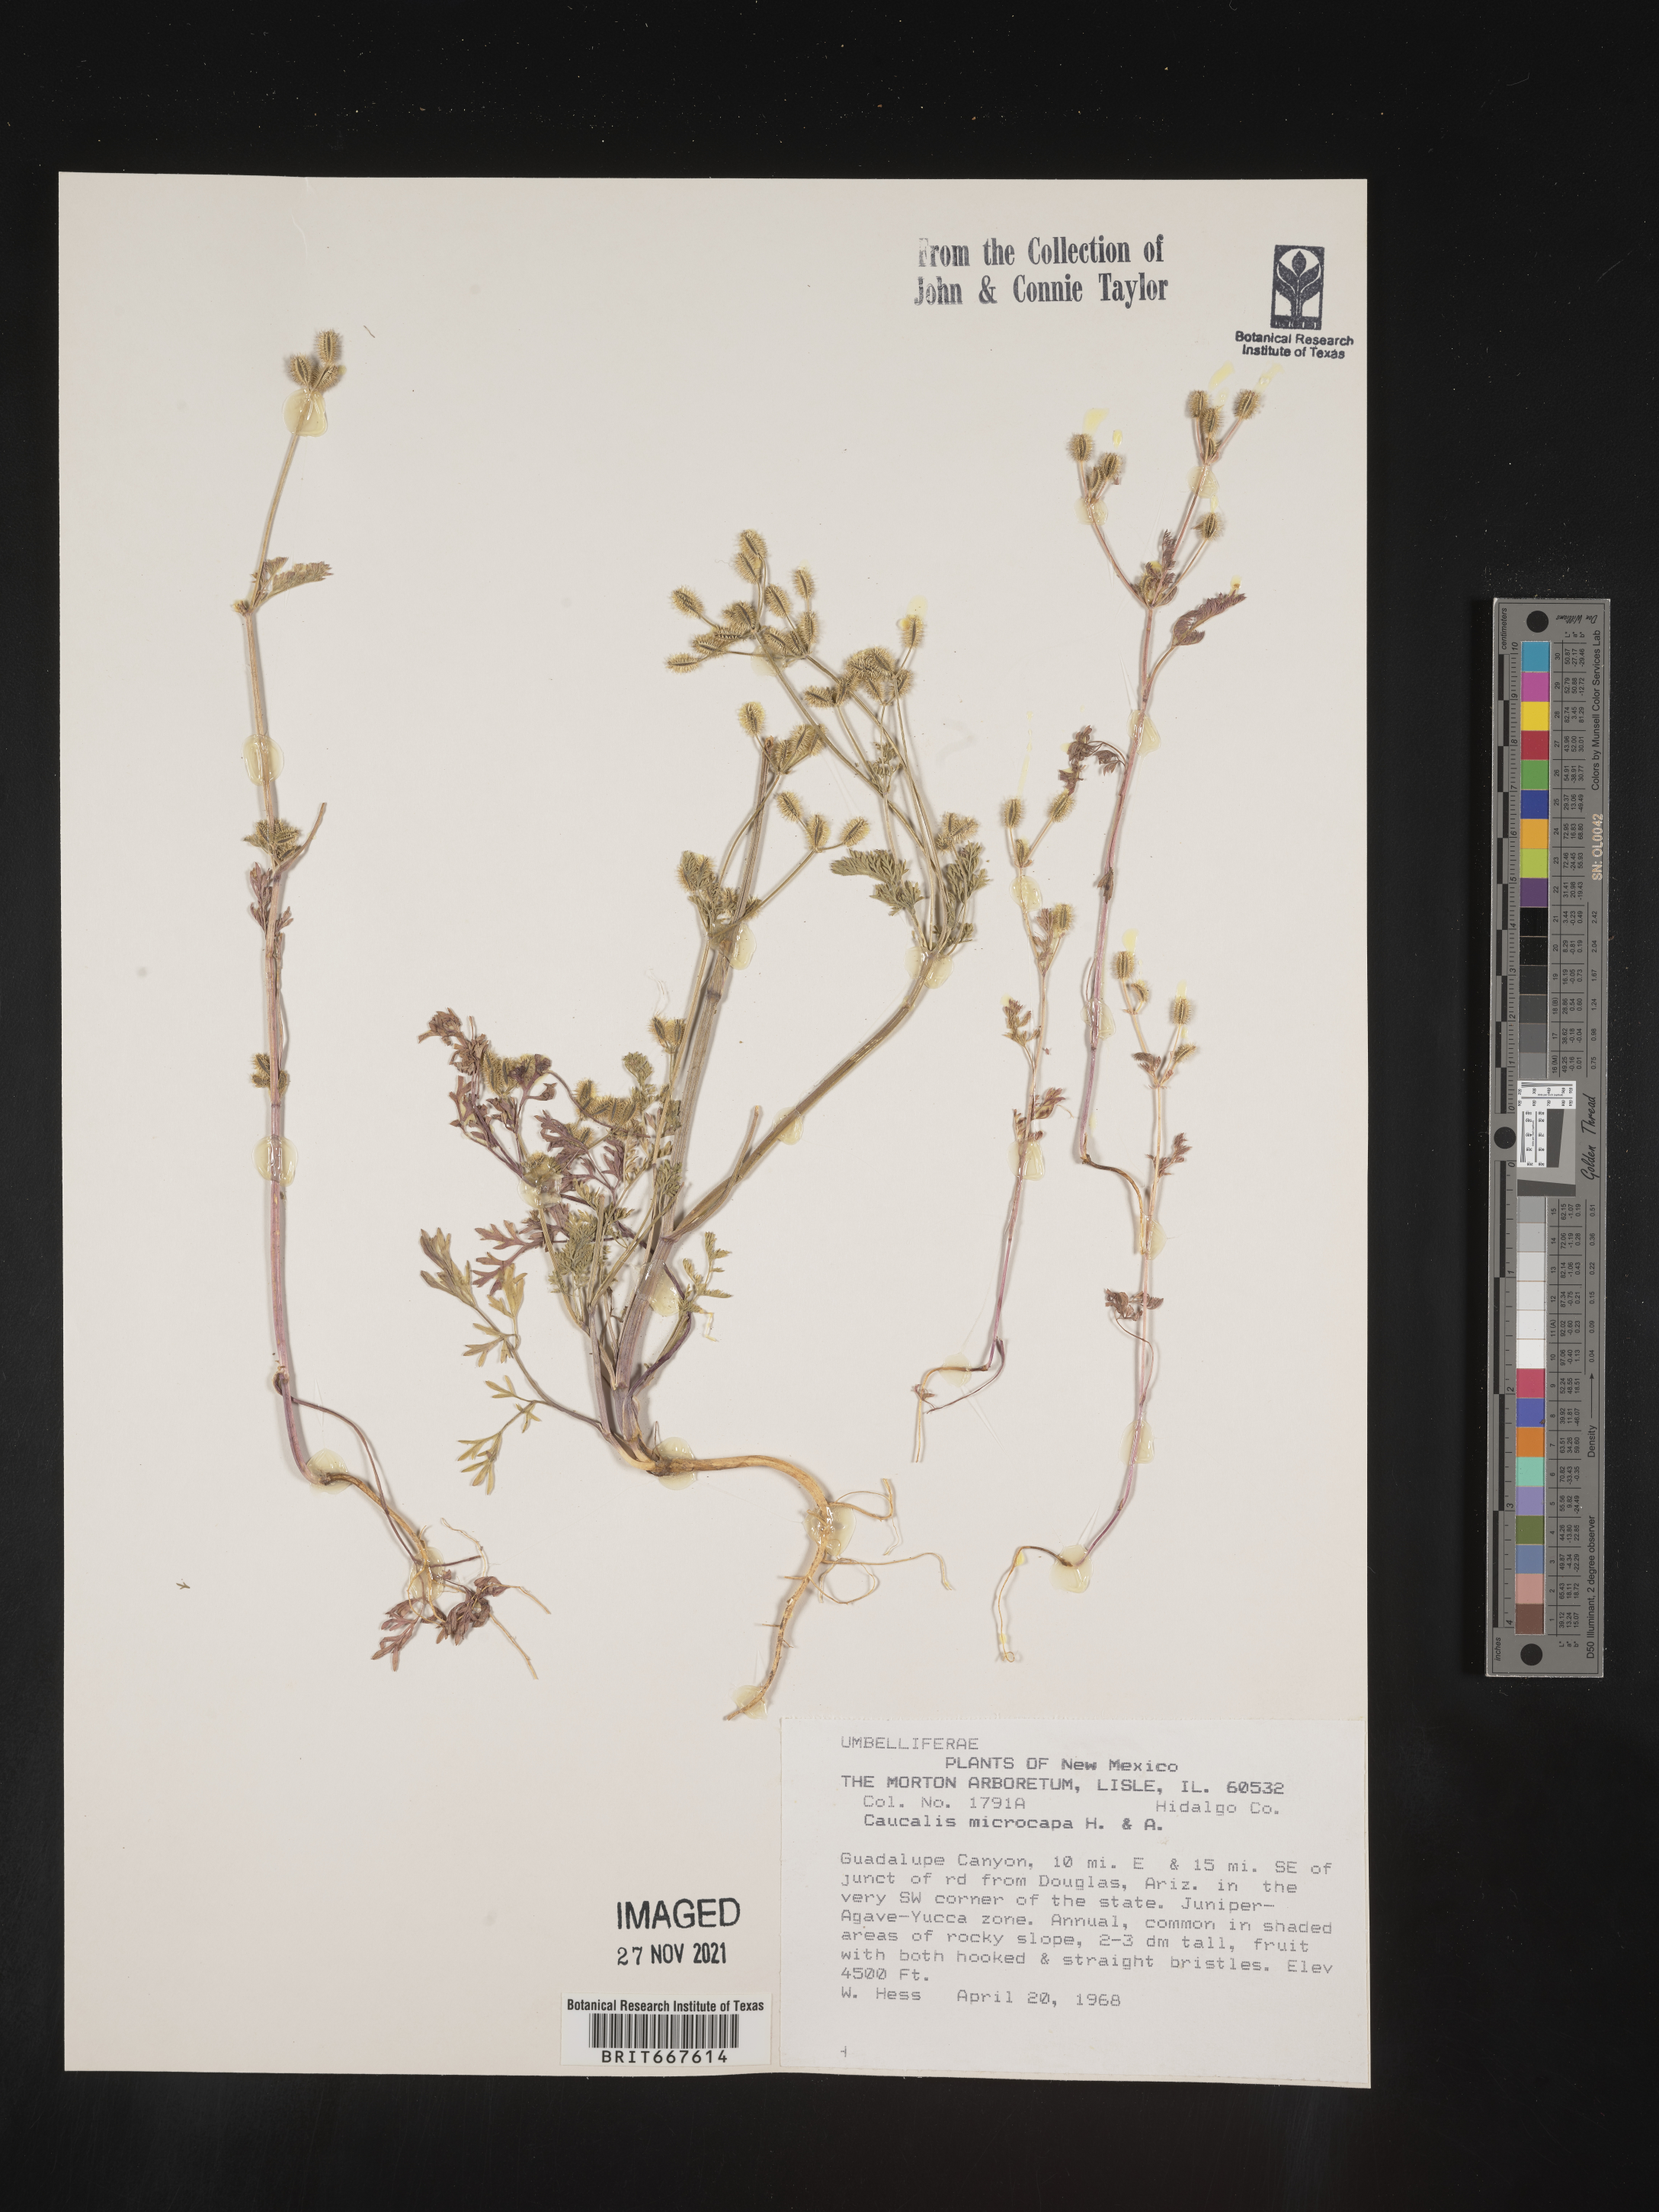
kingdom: Plantae
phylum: Tracheophyta
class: Magnoliopsida
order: Apiales
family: Apiaceae
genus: Caucalis
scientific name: Caucalis
